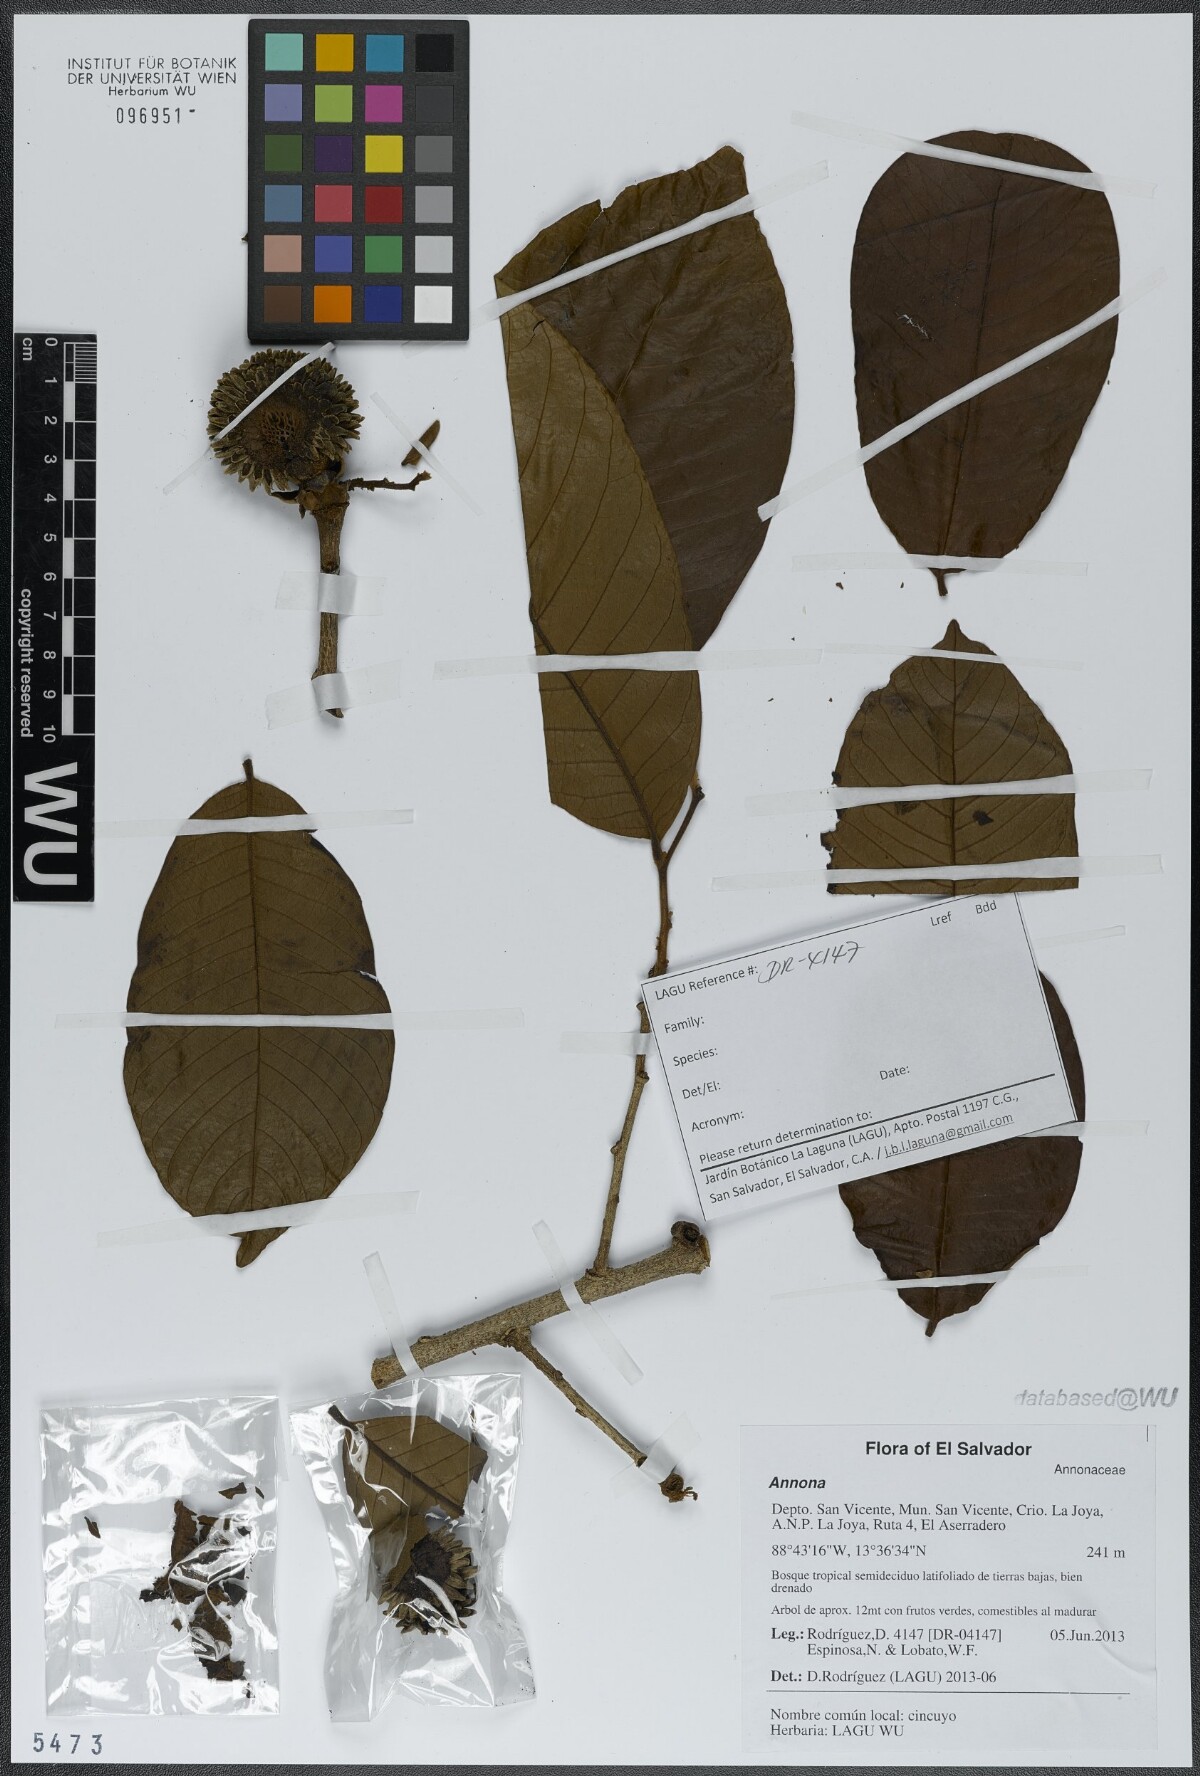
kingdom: Plantae
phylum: Tracheophyta
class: Magnoliopsida
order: Magnoliales
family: Annonaceae
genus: Annona
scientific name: Annona purpurea
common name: Negrohead
